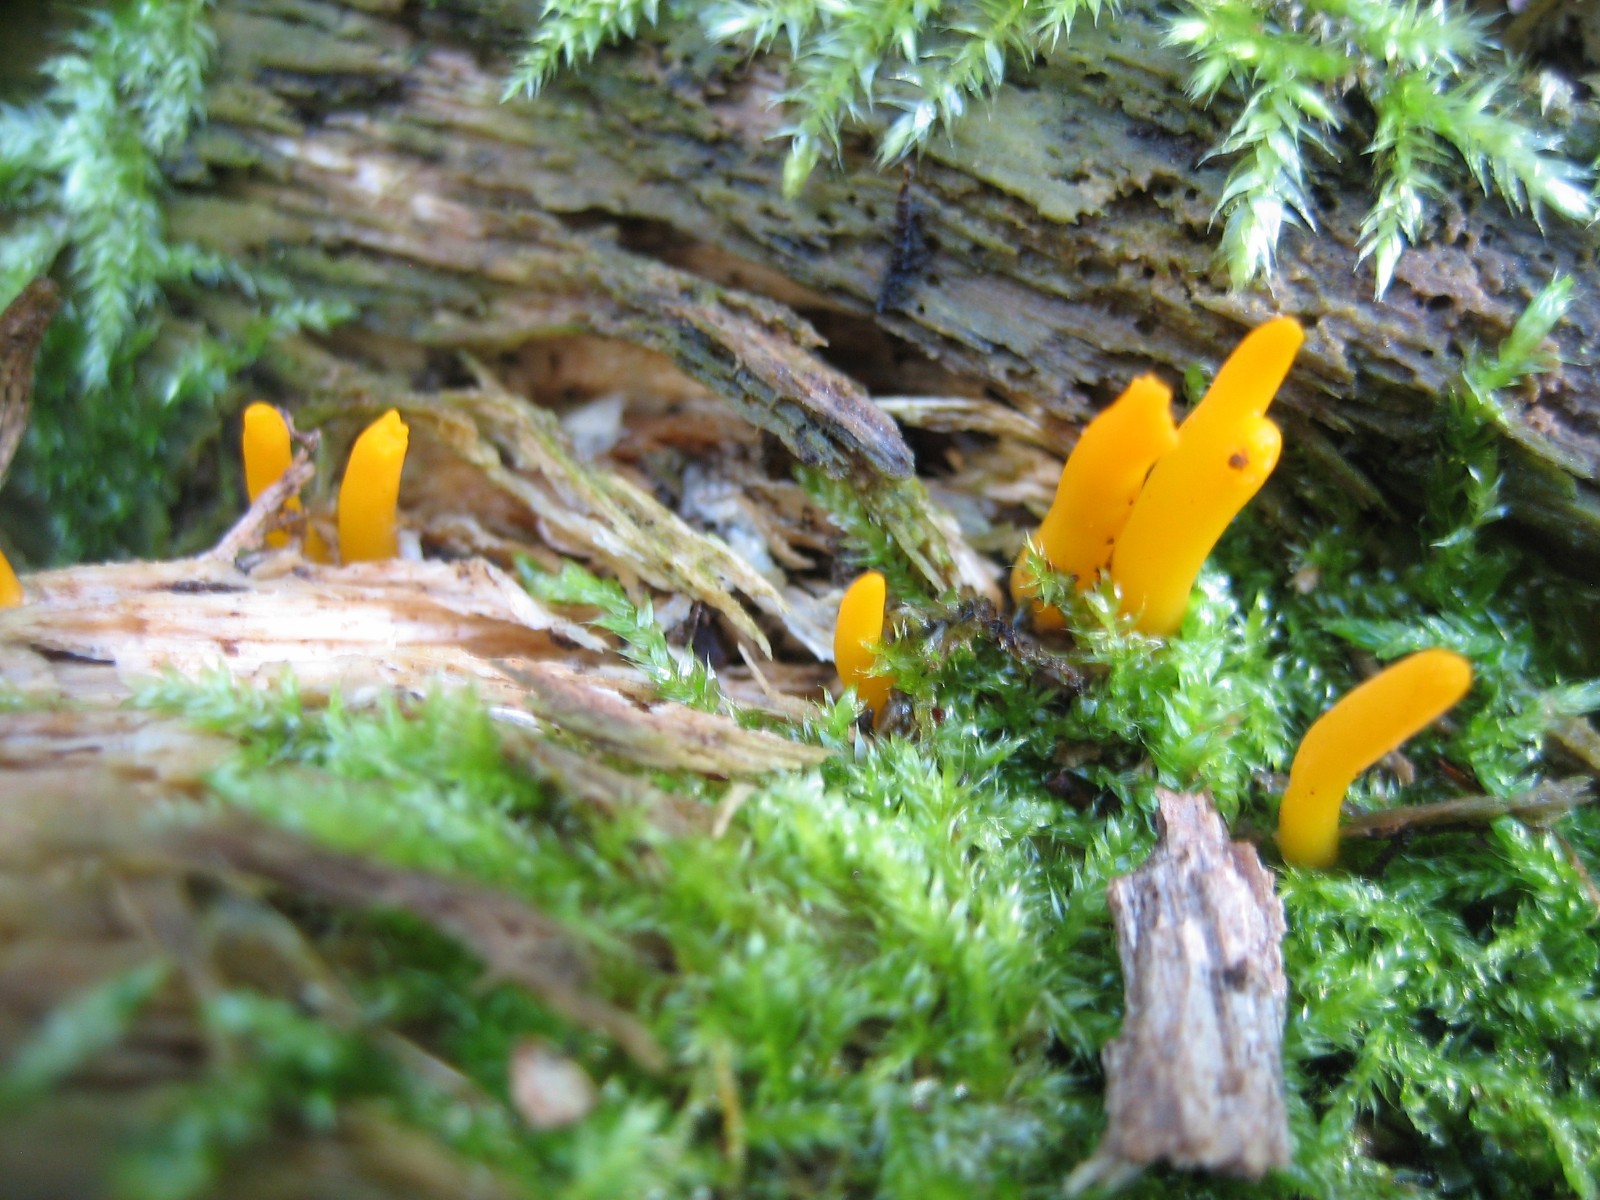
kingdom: Fungi
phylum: Basidiomycota
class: Dacrymycetes
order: Dacrymycetales
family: Dacrymycetaceae
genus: Calocera
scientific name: Calocera
